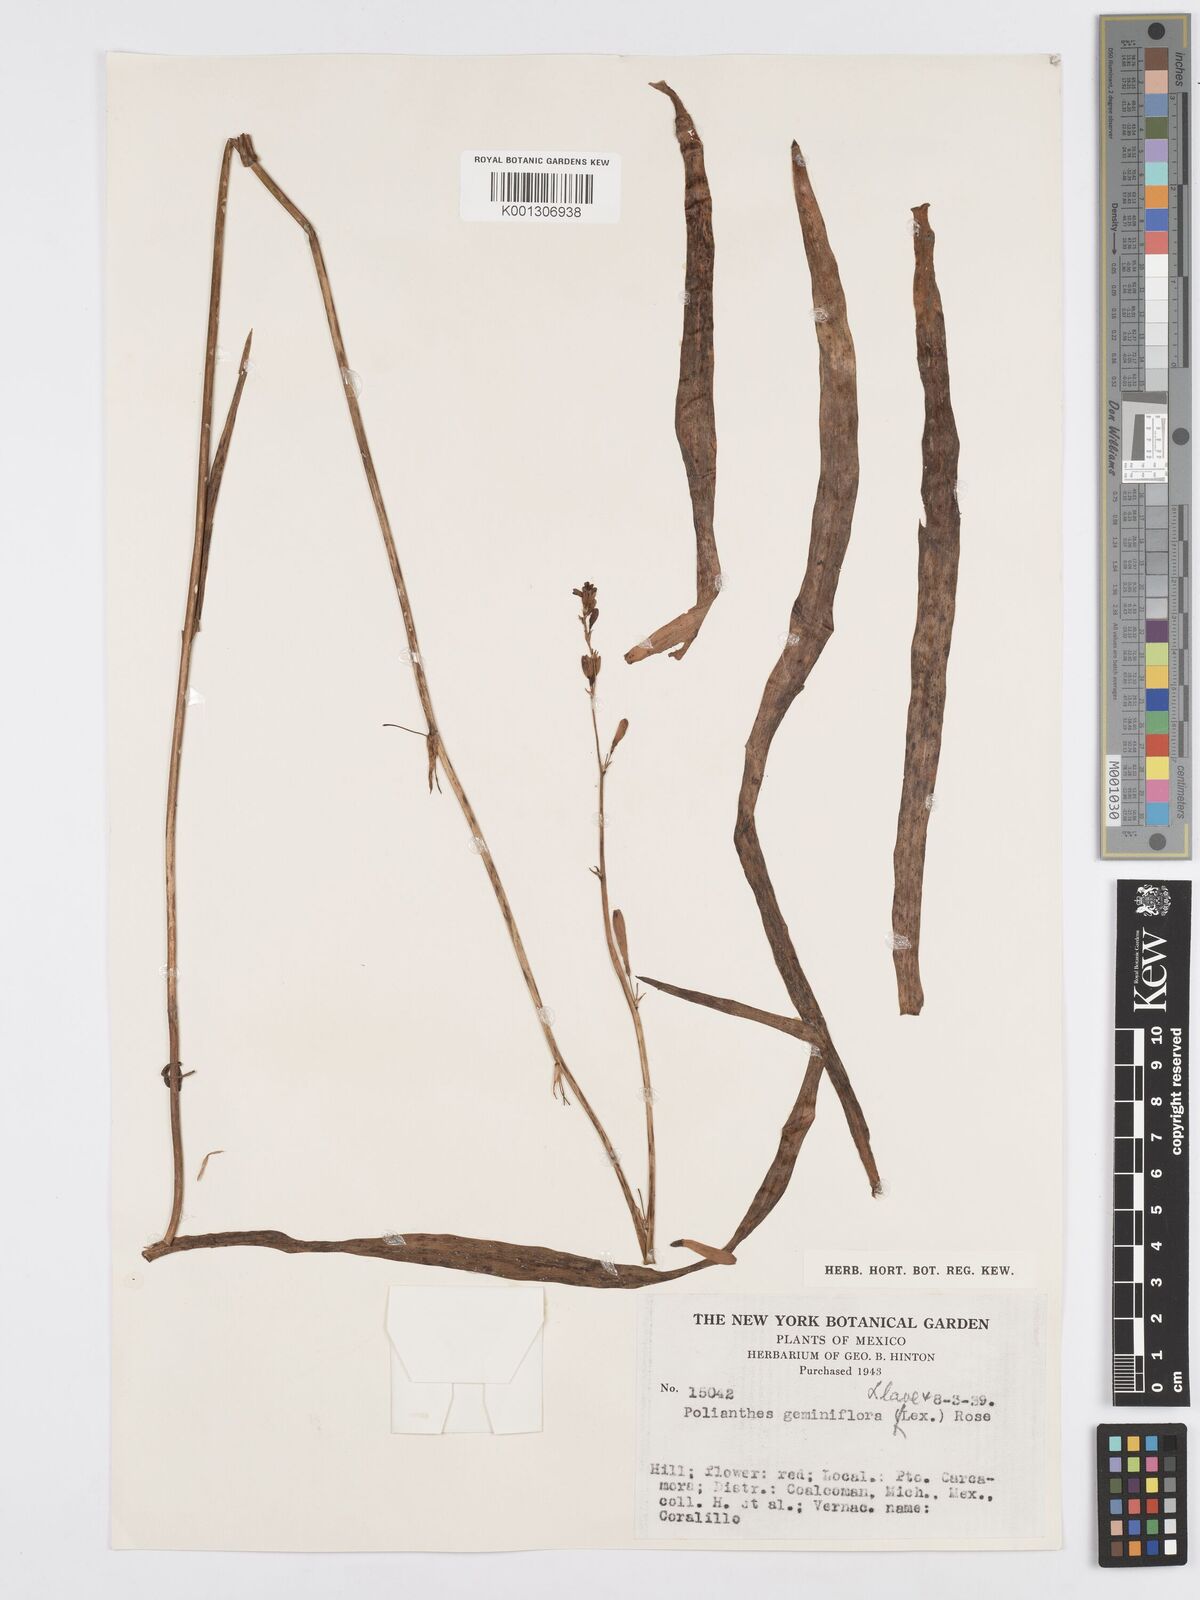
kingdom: Plantae
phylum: Tracheophyta
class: Liliopsida
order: Asparagales
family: Asparagaceae
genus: Agave
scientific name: Agave coetocapnia
